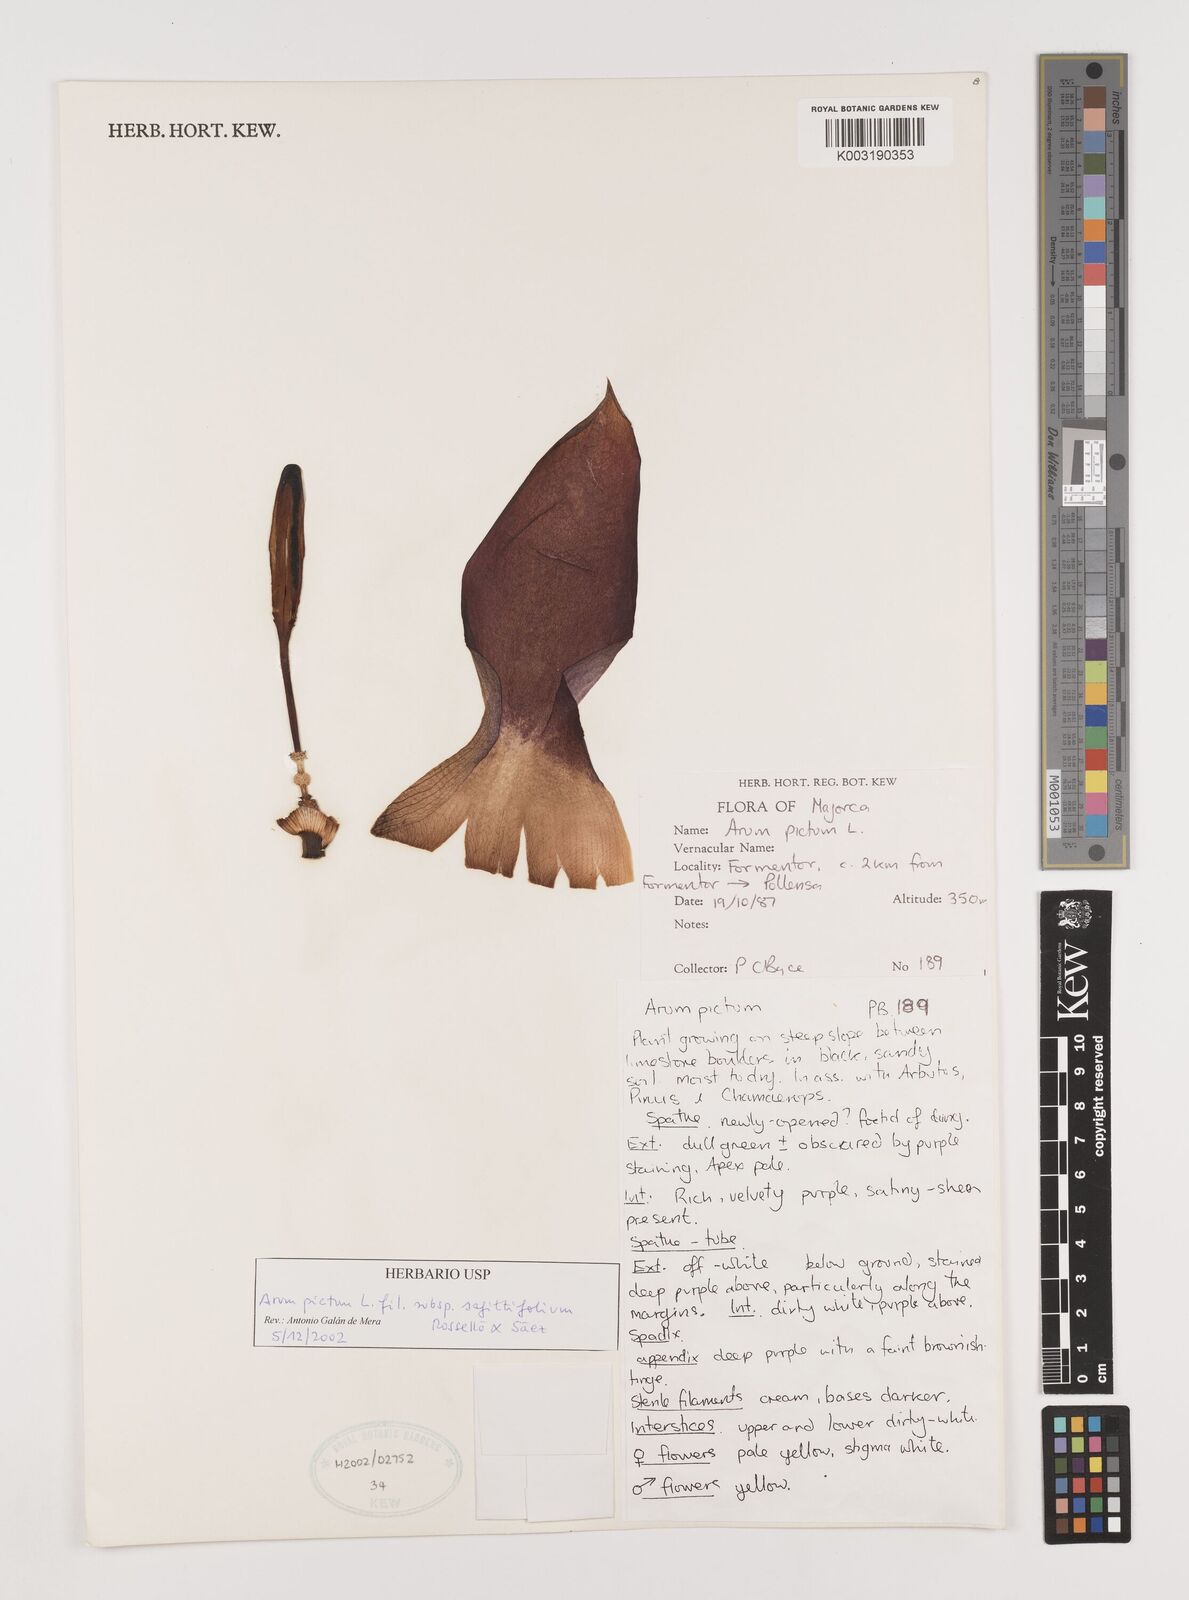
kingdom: Plantae
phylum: Tracheophyta
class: Liliopsida
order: Alismatales
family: Araceae
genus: Arum
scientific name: Arum
